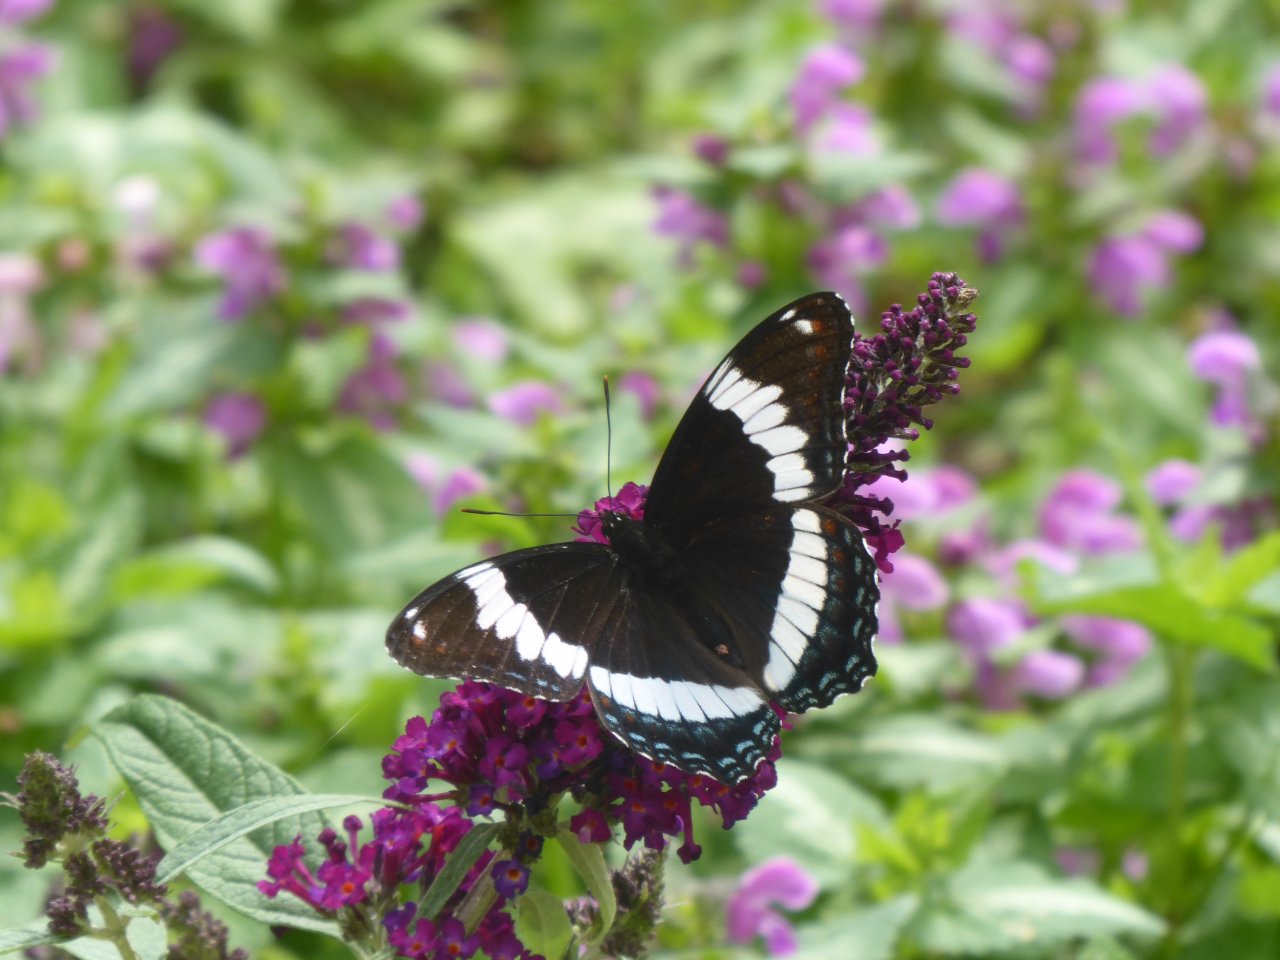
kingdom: Animalia
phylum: Arthropoda
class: Insecta
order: Lepidoptera
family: Nymphalidae
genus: Limenitis
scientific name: Limenitis arthemis
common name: Red-spotted Admiral
